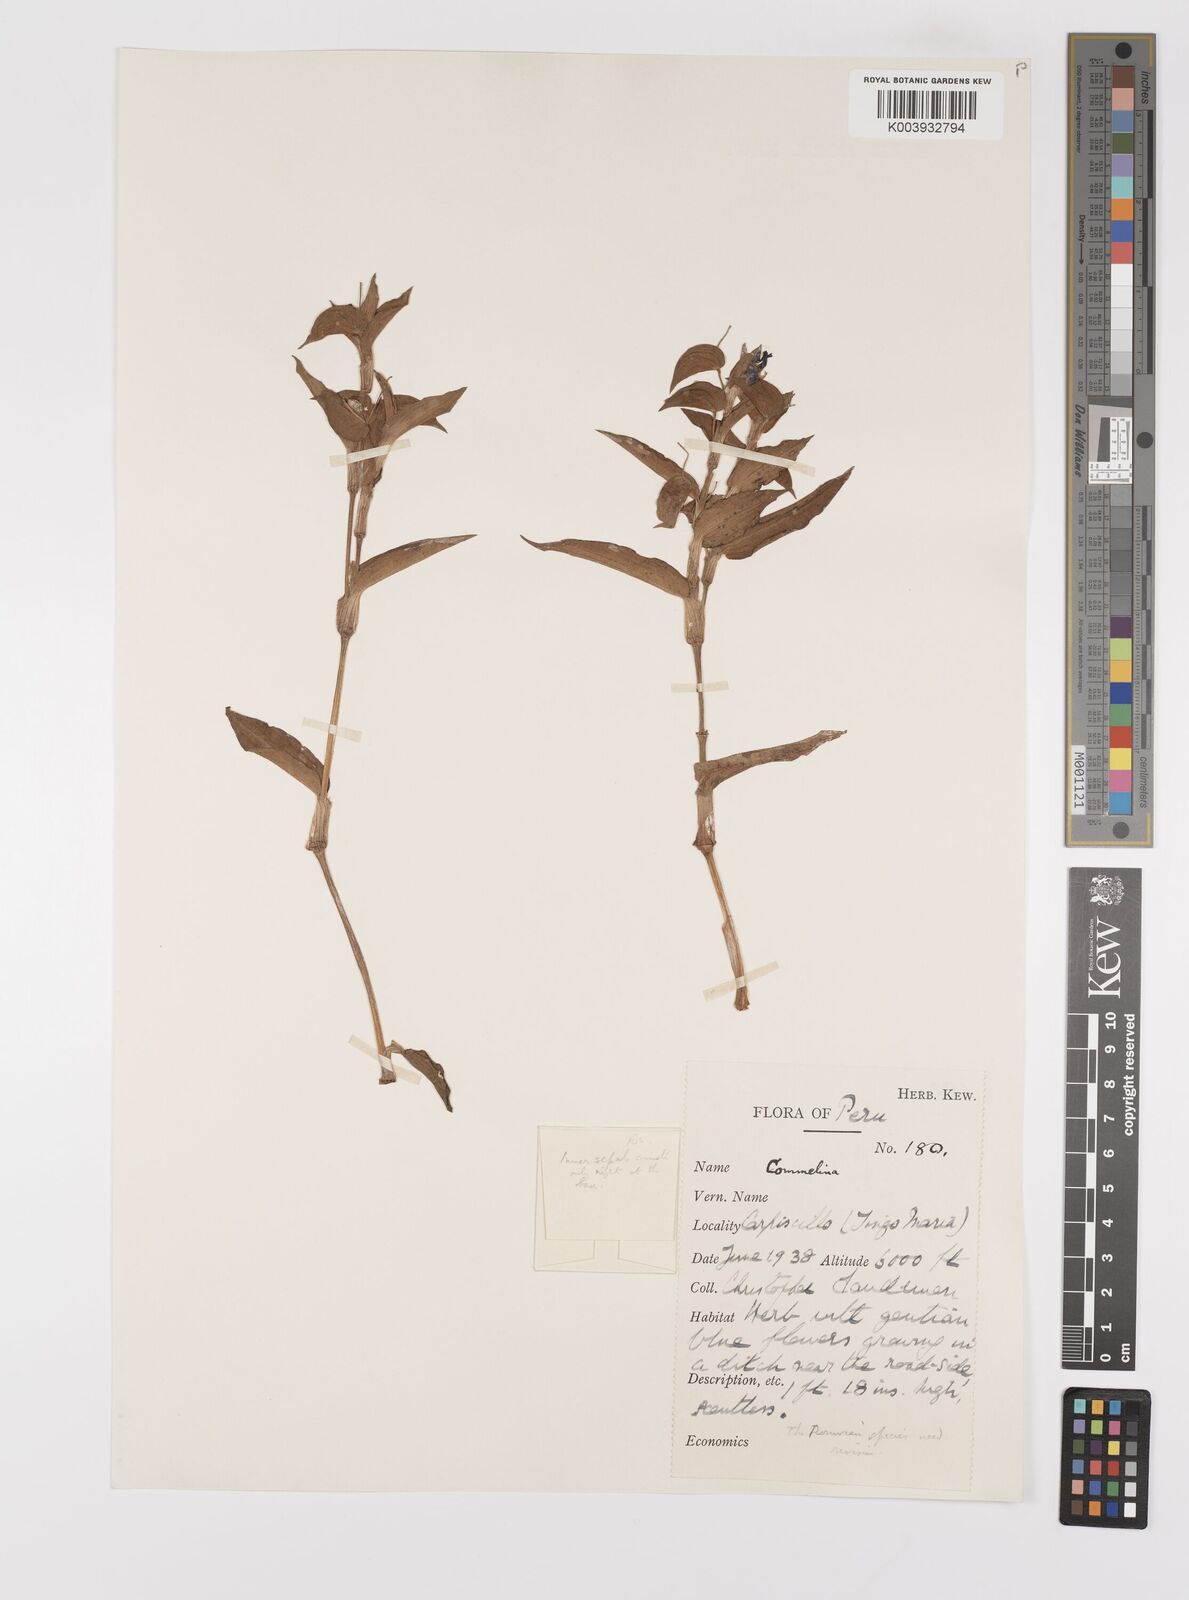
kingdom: Plantae
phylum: Tracheophyta
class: Liliopsida
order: Commelinales
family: Commelinaceae
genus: Commelina
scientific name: Commelina
